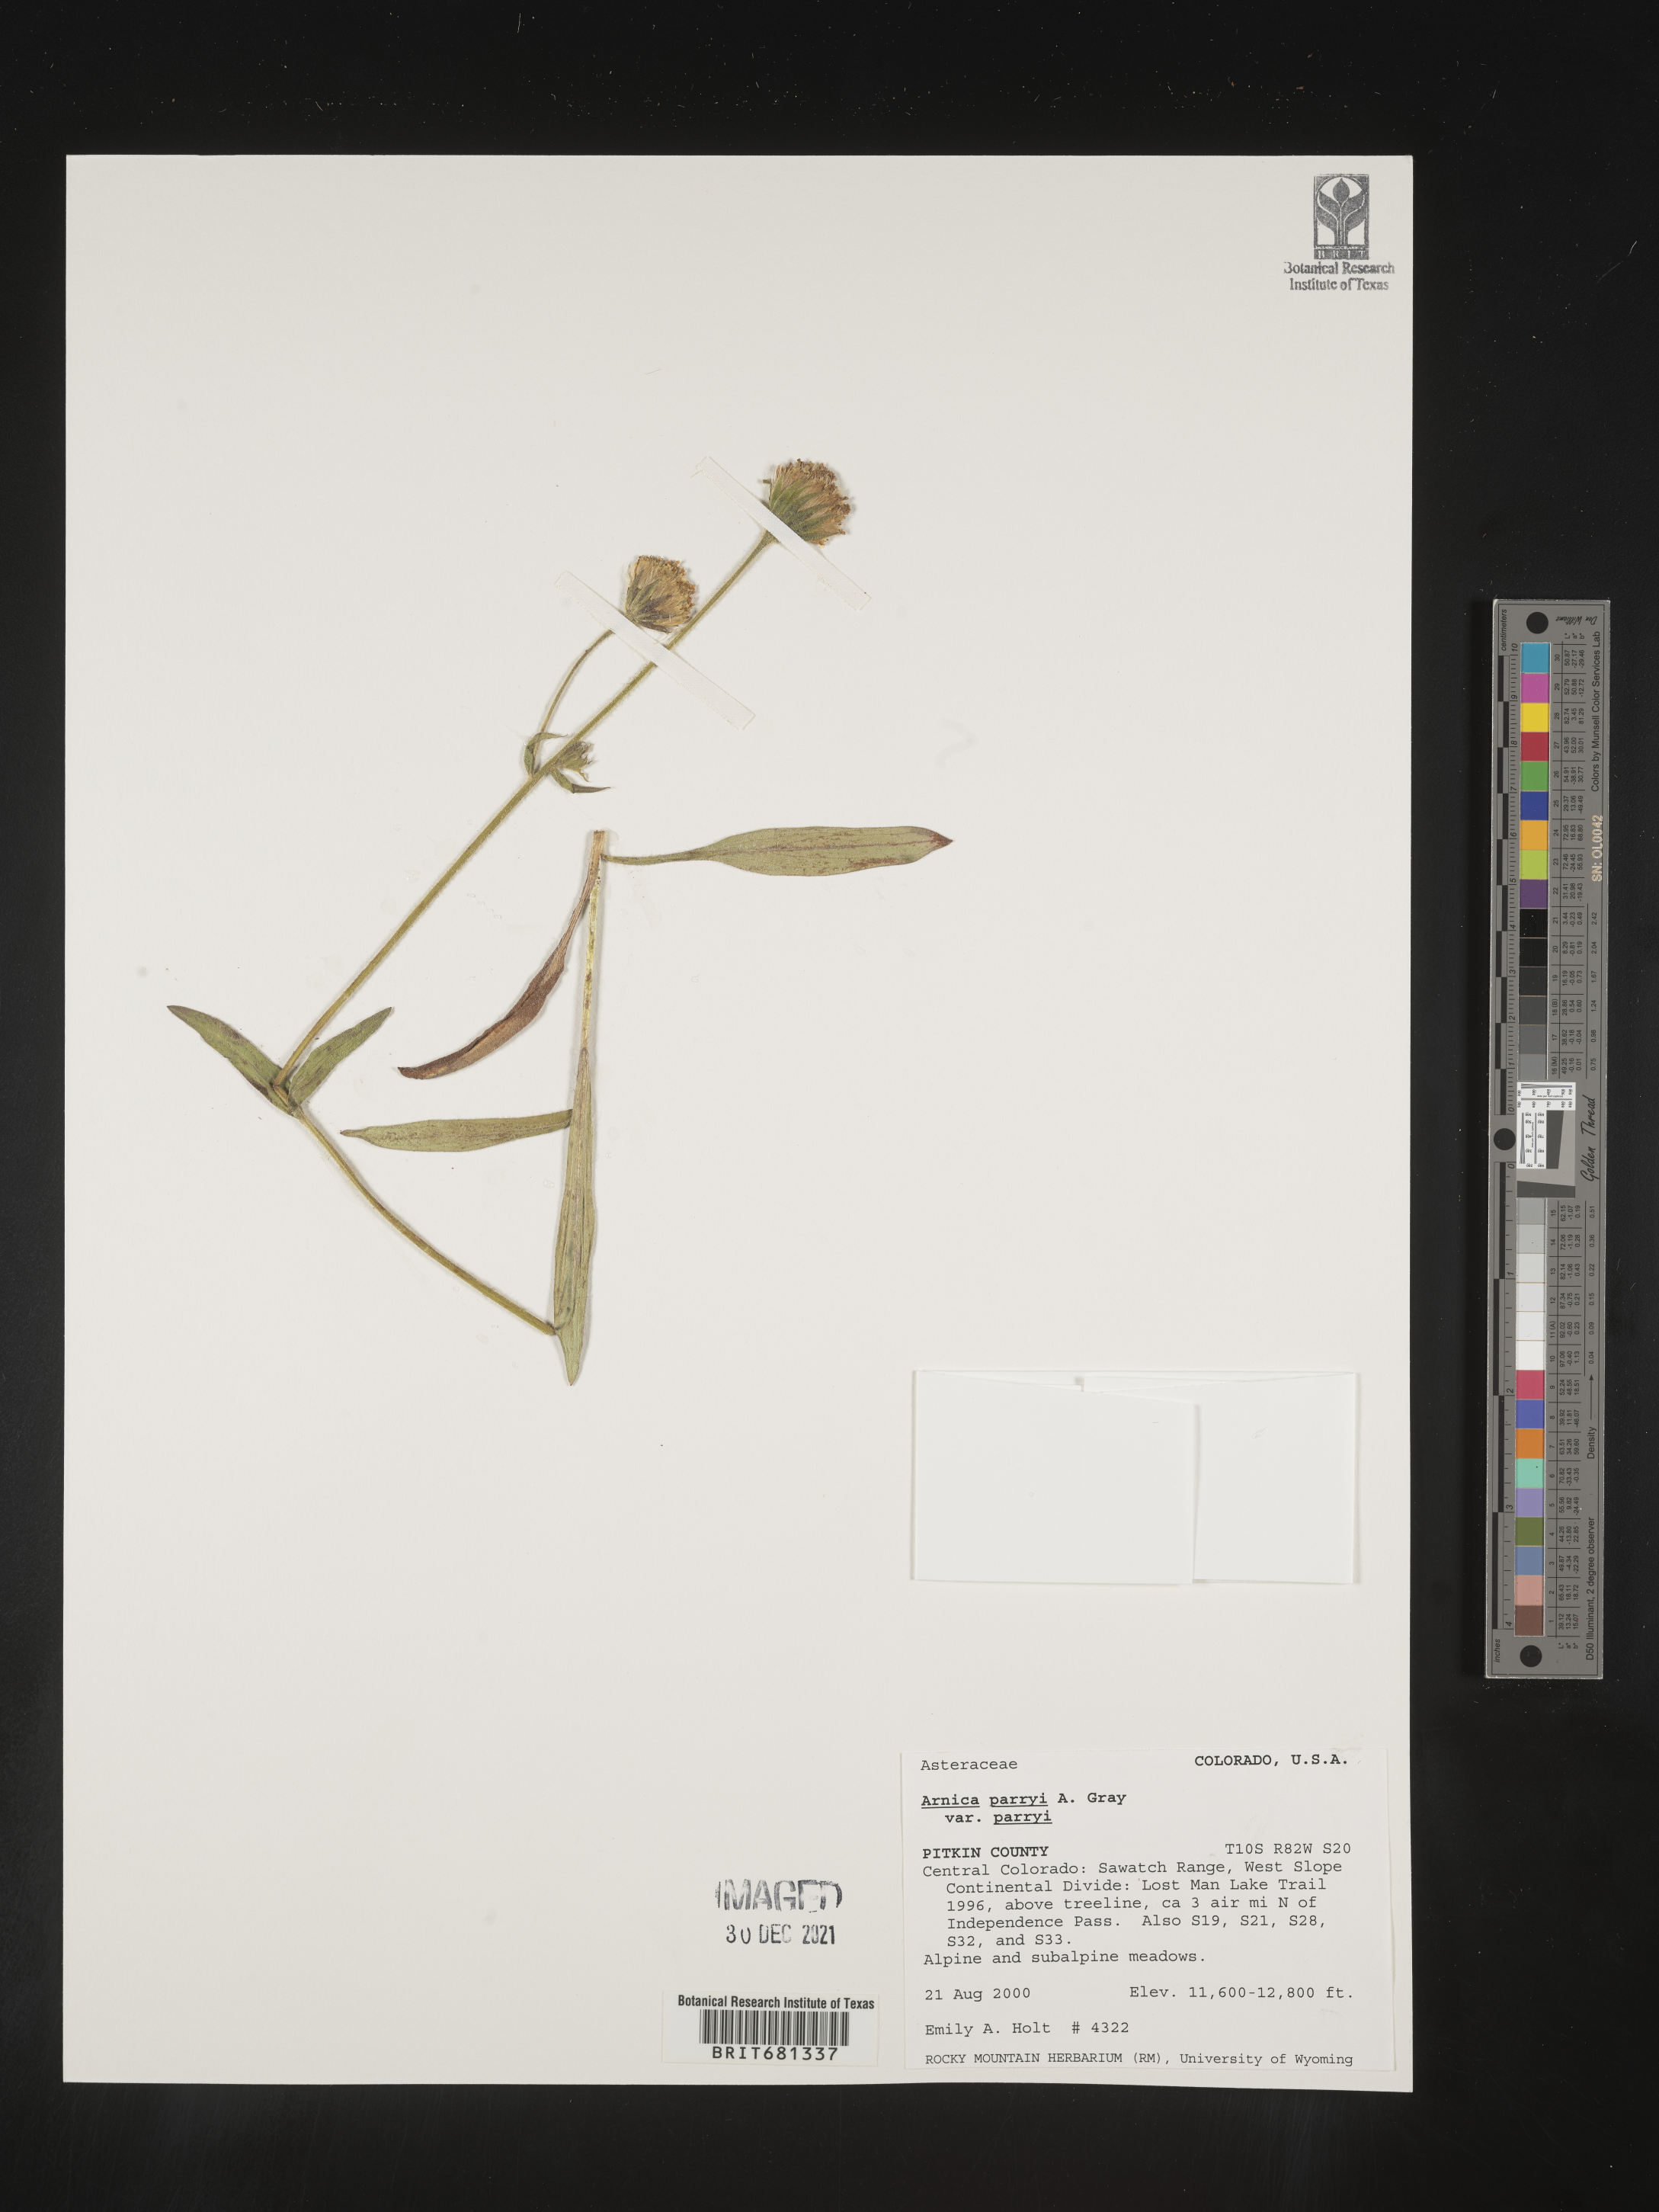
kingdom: Plantae
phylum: Tracheophyta
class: Magnoliopsida
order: Asterales
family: Asteraceae
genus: Arnica
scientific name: Arnica parryi
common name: Parry's arnica
